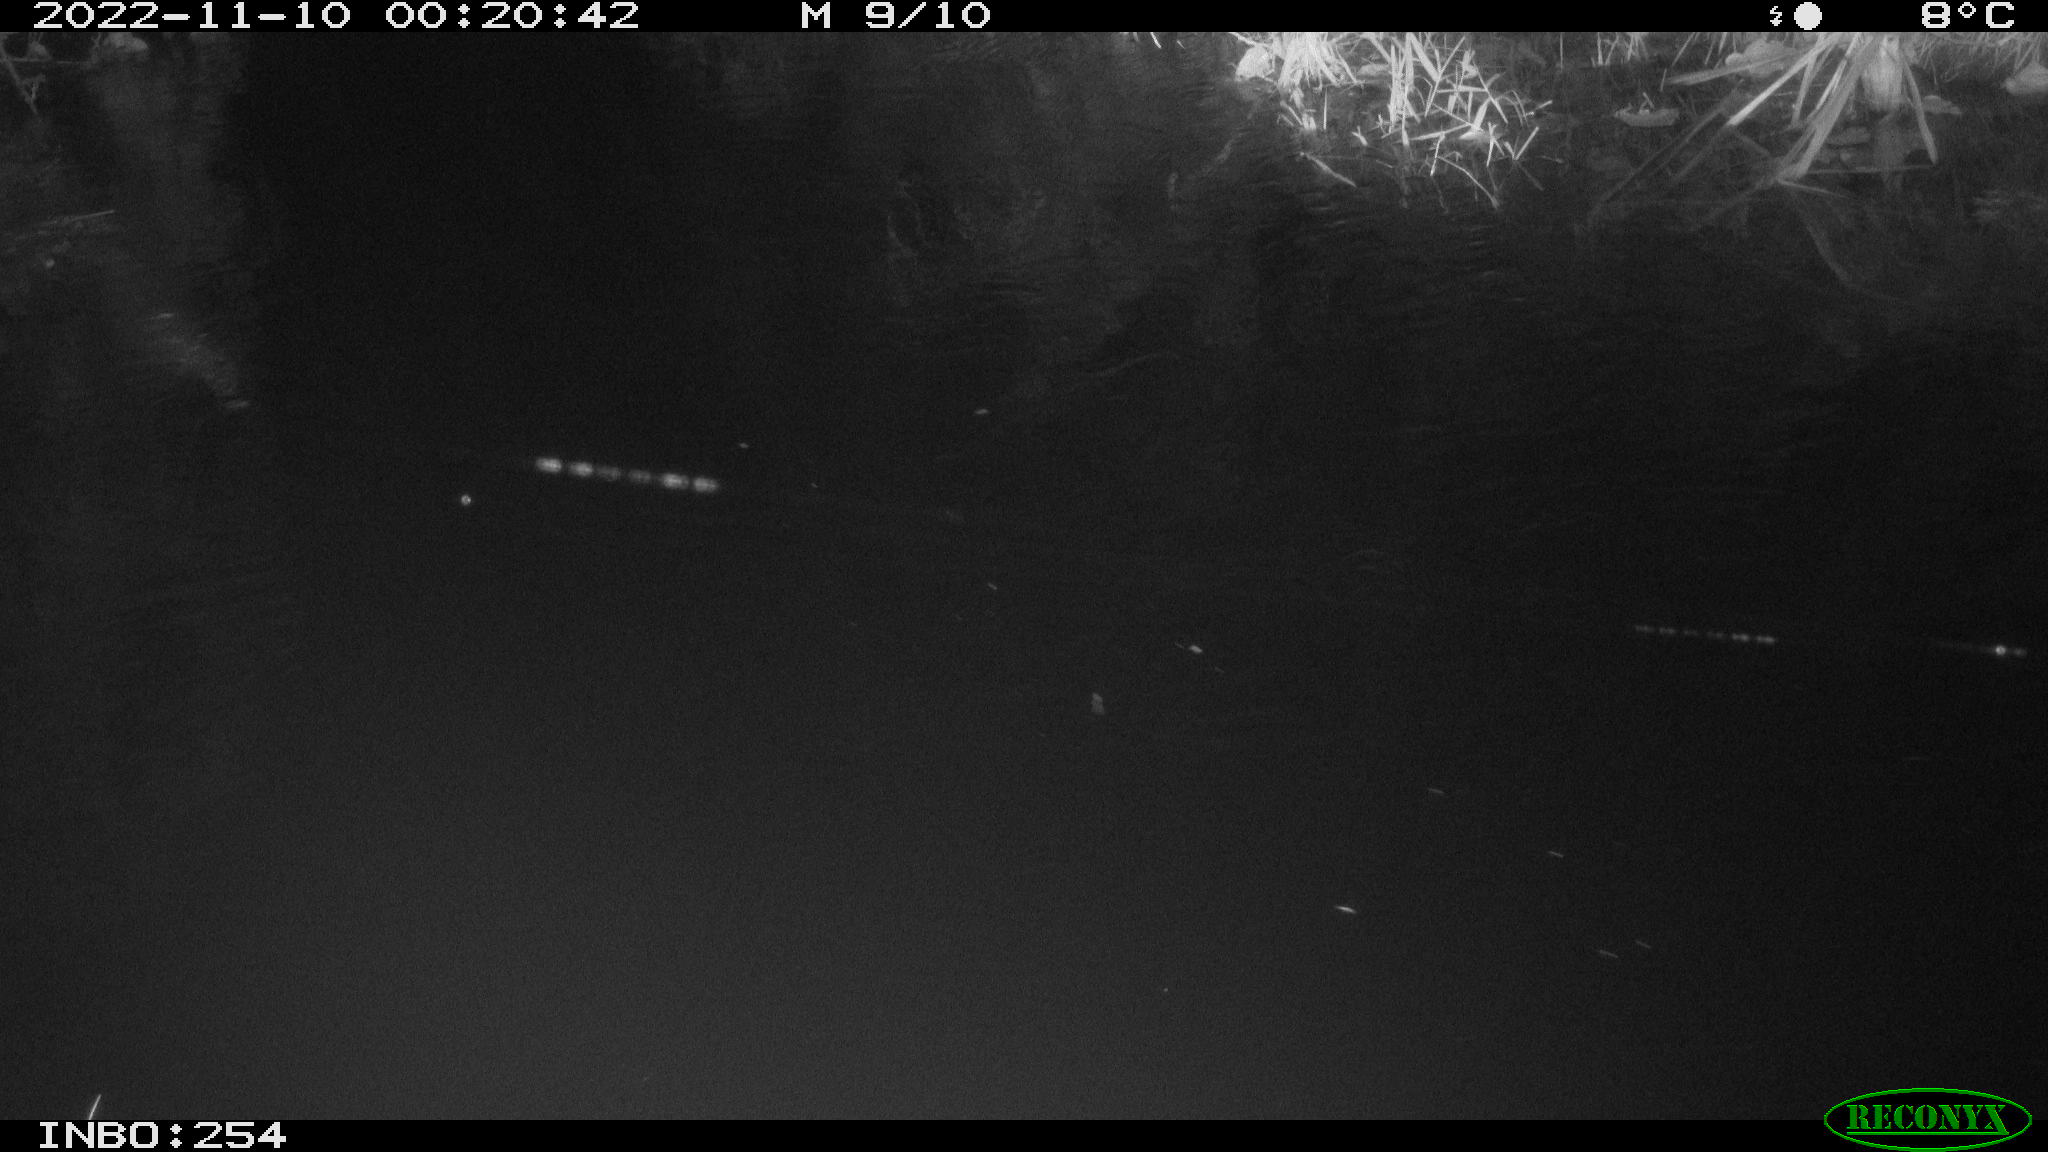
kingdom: Animalia
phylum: Chordata
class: Aves
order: Anseriformes
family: Anatidae
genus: Anas
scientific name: Anas
